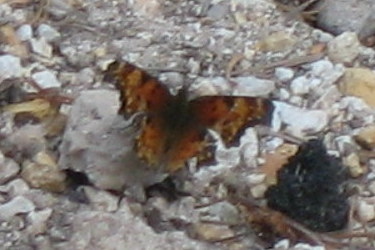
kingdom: Animalia
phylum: Arthropoda
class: Insecta
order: Lepidoptera
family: Nymphalidae
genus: Polygonia
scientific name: Polygonia gracilis
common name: Hoary Comma
